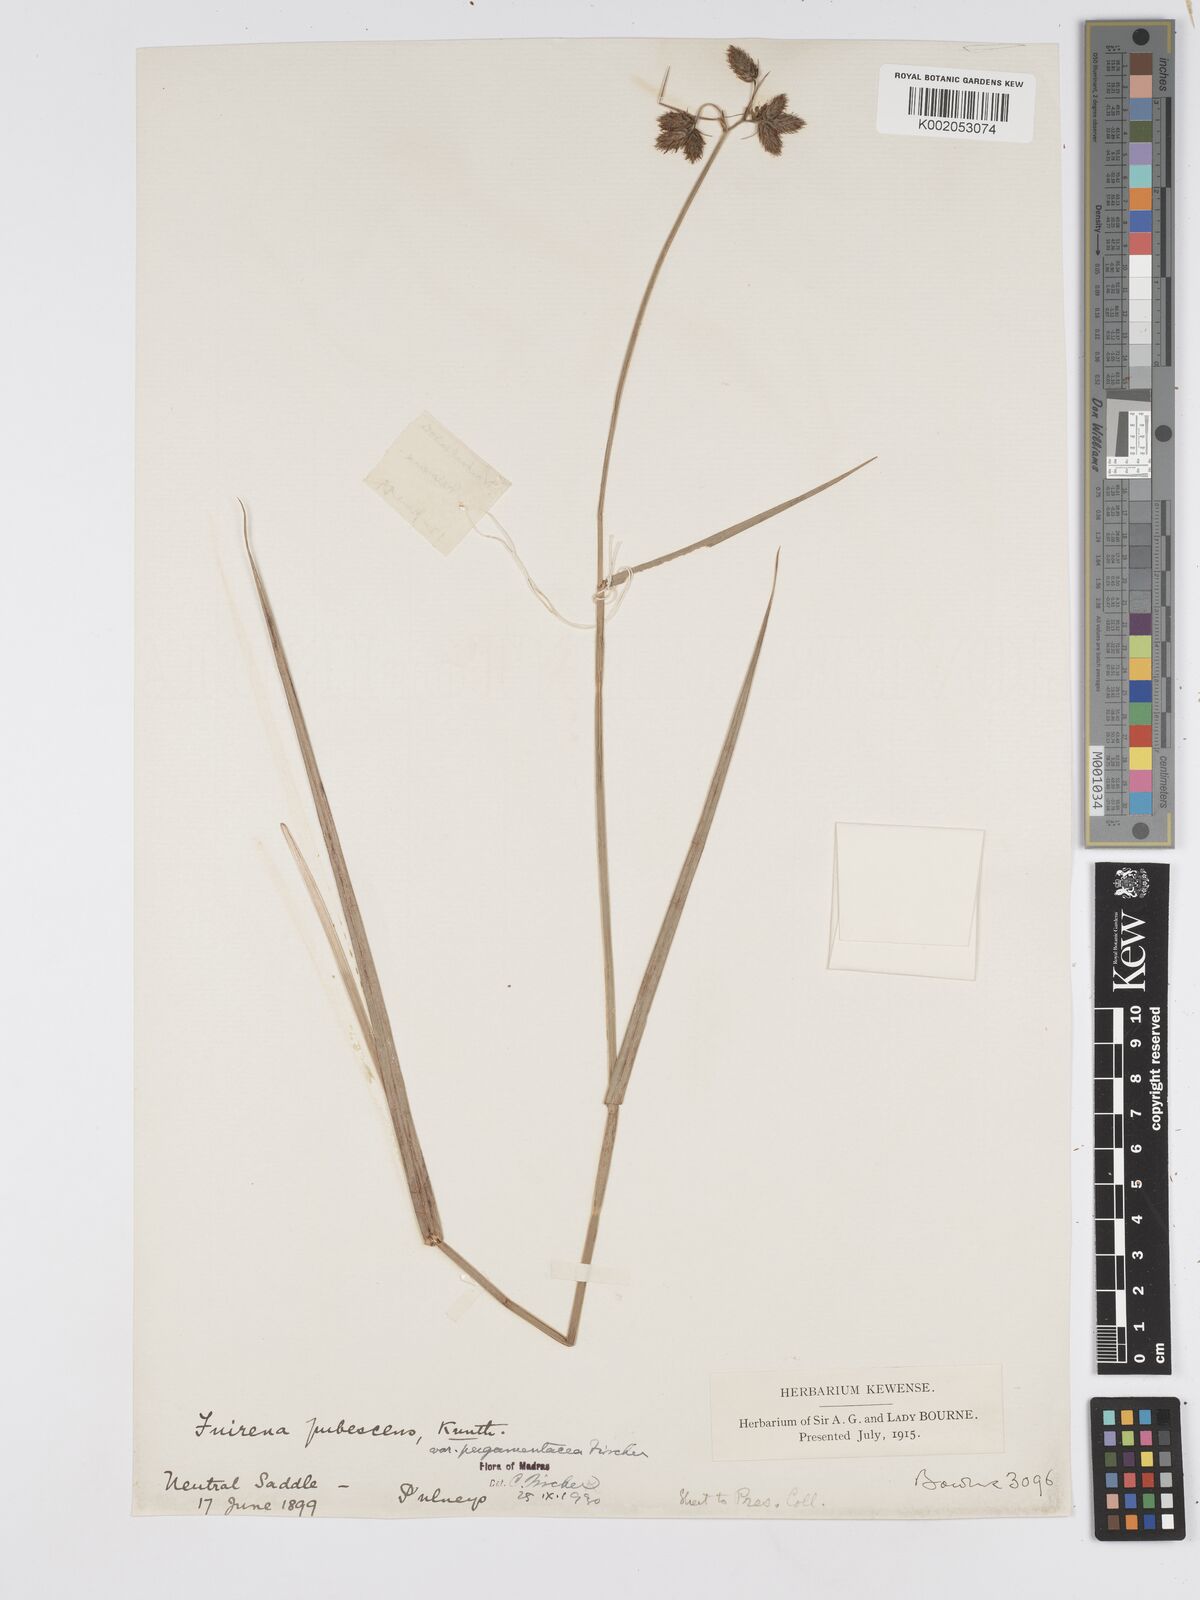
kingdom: Plantae
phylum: Tracheophyta
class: Liliopsida
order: Poales
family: Cyperaceae
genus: Fuirena
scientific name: Fuirena pubescens
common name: Hairy sedge
